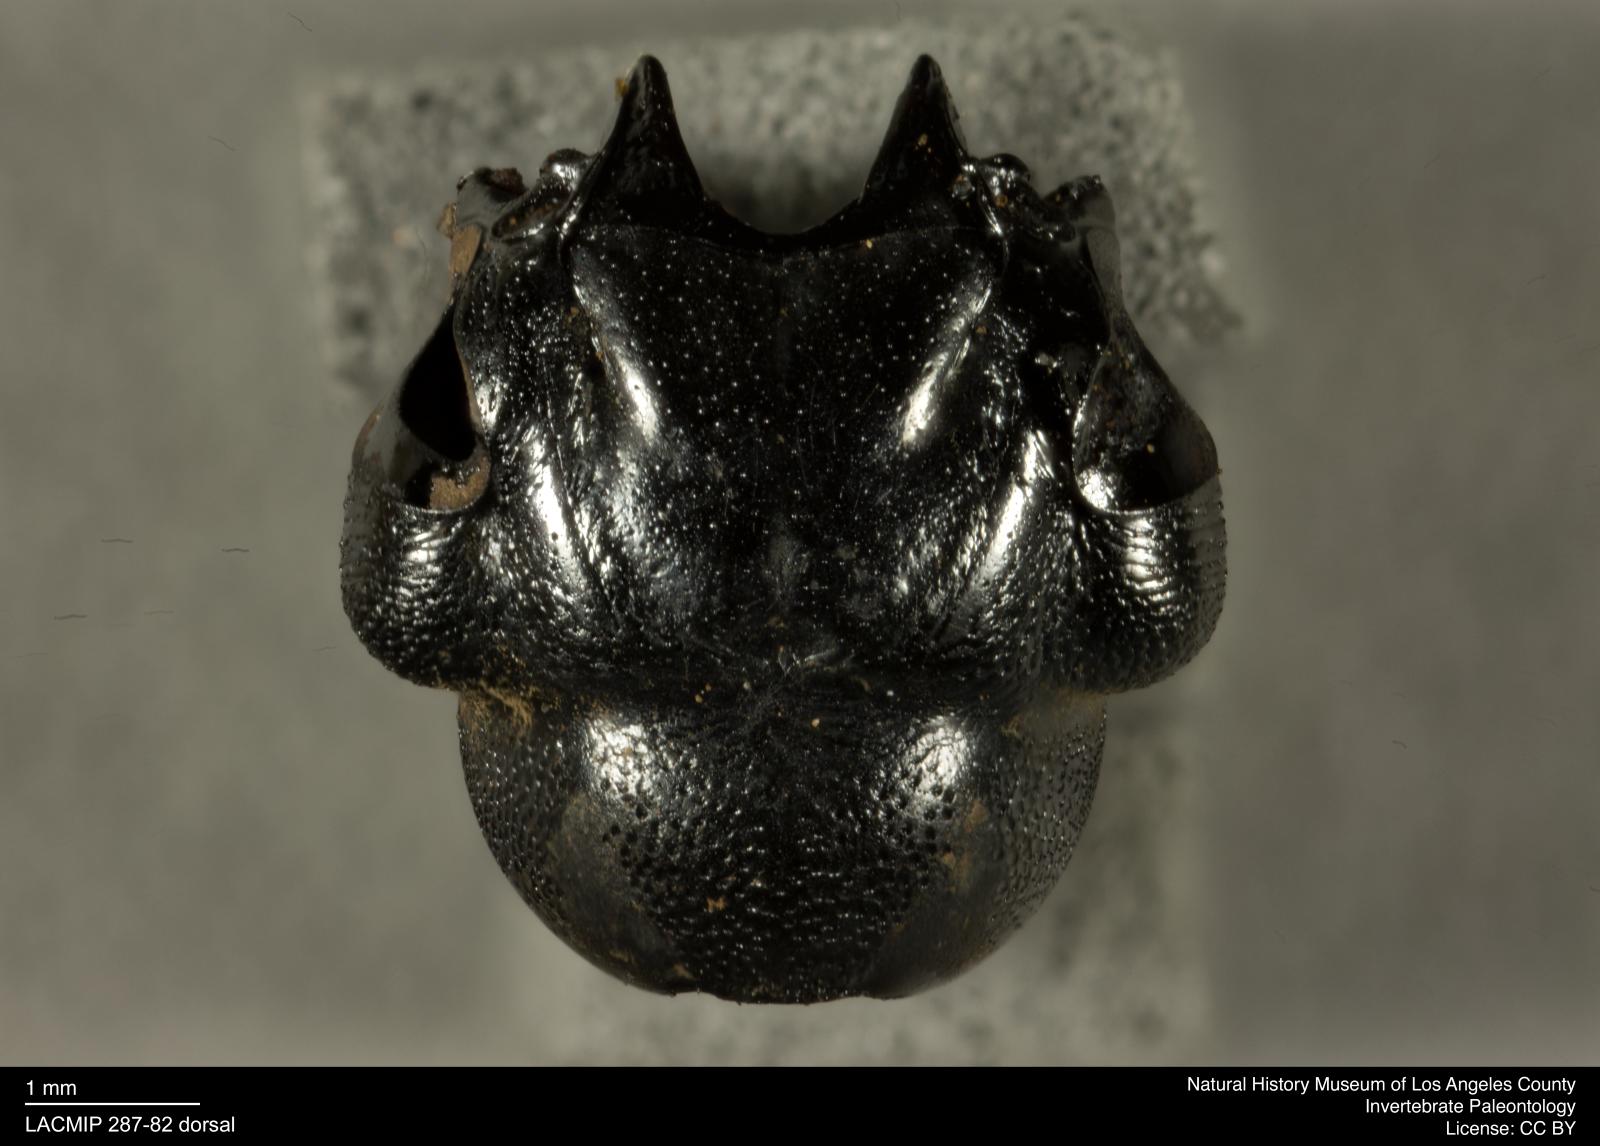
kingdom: Animalia
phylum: Arthropoda
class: Insecta
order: Coleoptera
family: Staphylinidae
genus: Nicrophorus
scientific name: Nicrophorus marginatus
